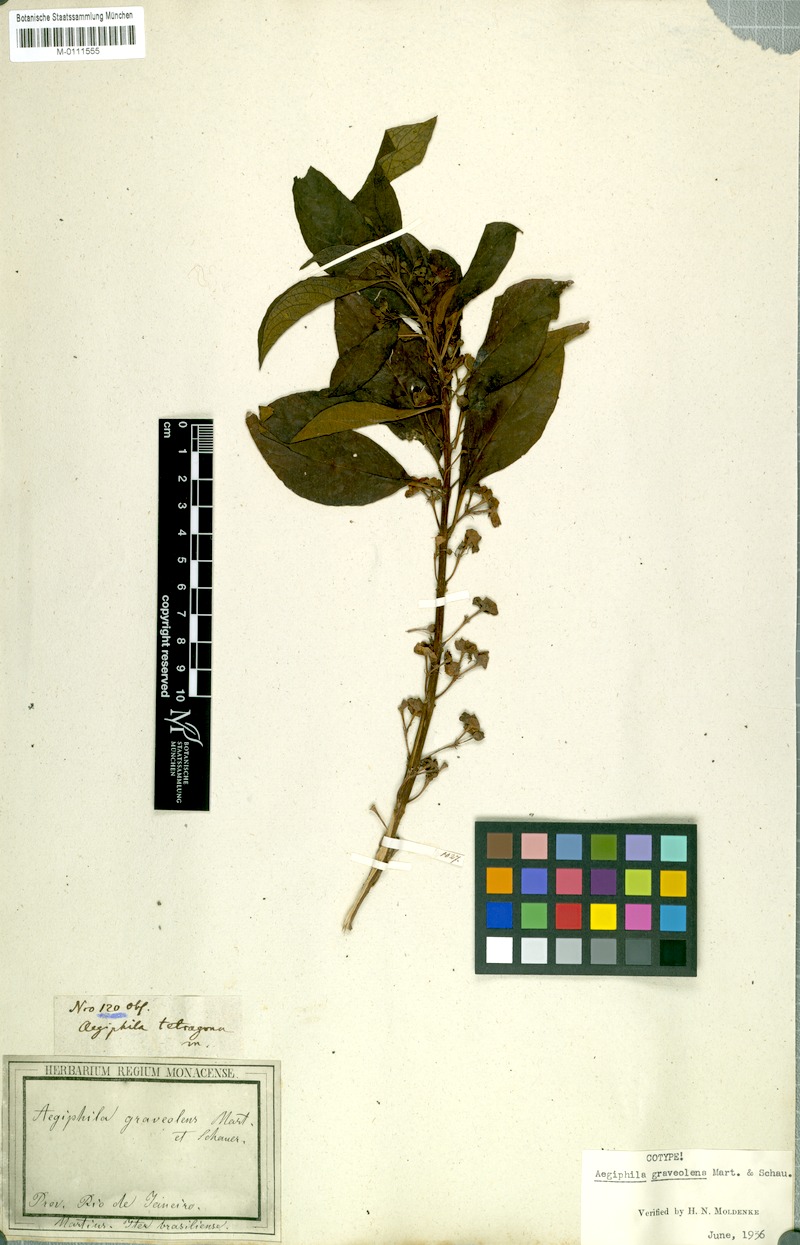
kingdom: Plantae
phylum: Tracheophyta
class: Magnoliopsida
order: Lamiales
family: Lamiaceae
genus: Aegiphila
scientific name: Aegiphila graveolens
